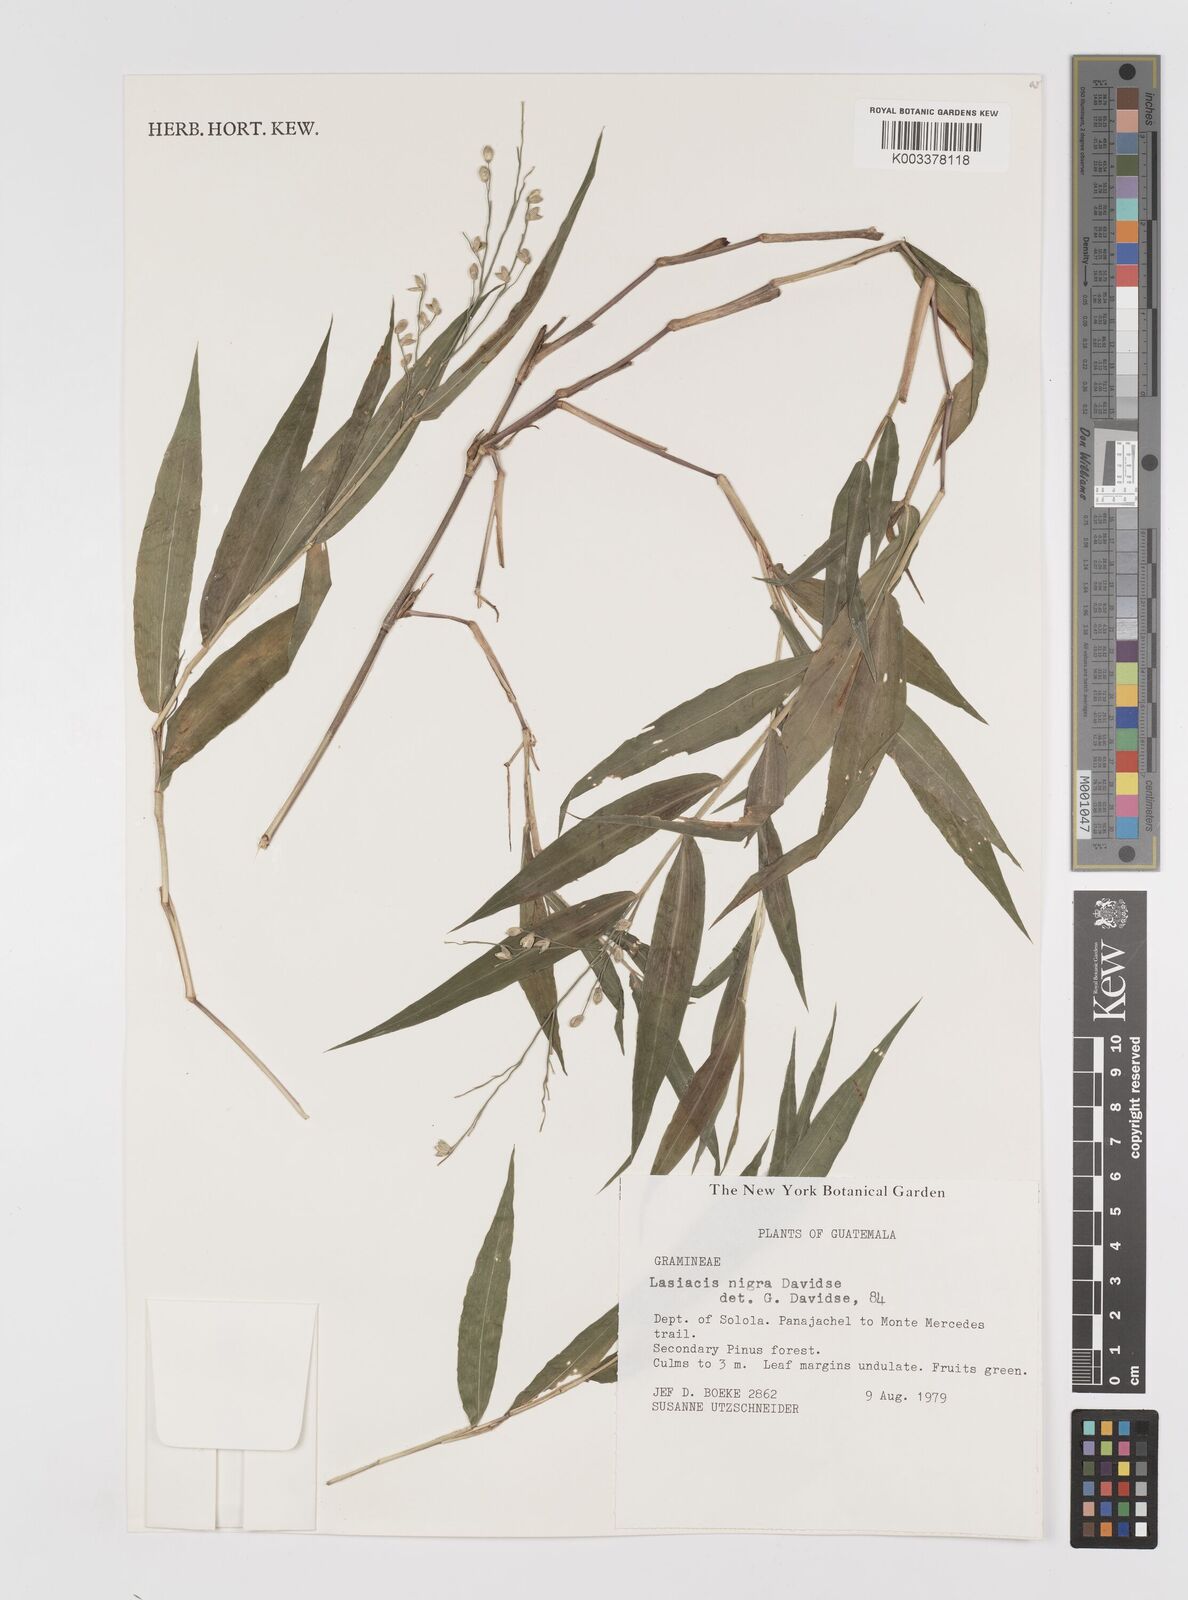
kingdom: Plantae
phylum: Tracheophyta
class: Liliopsida
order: Poales
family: Poaceae
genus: Lasiacis
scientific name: Lasiacis nigra
